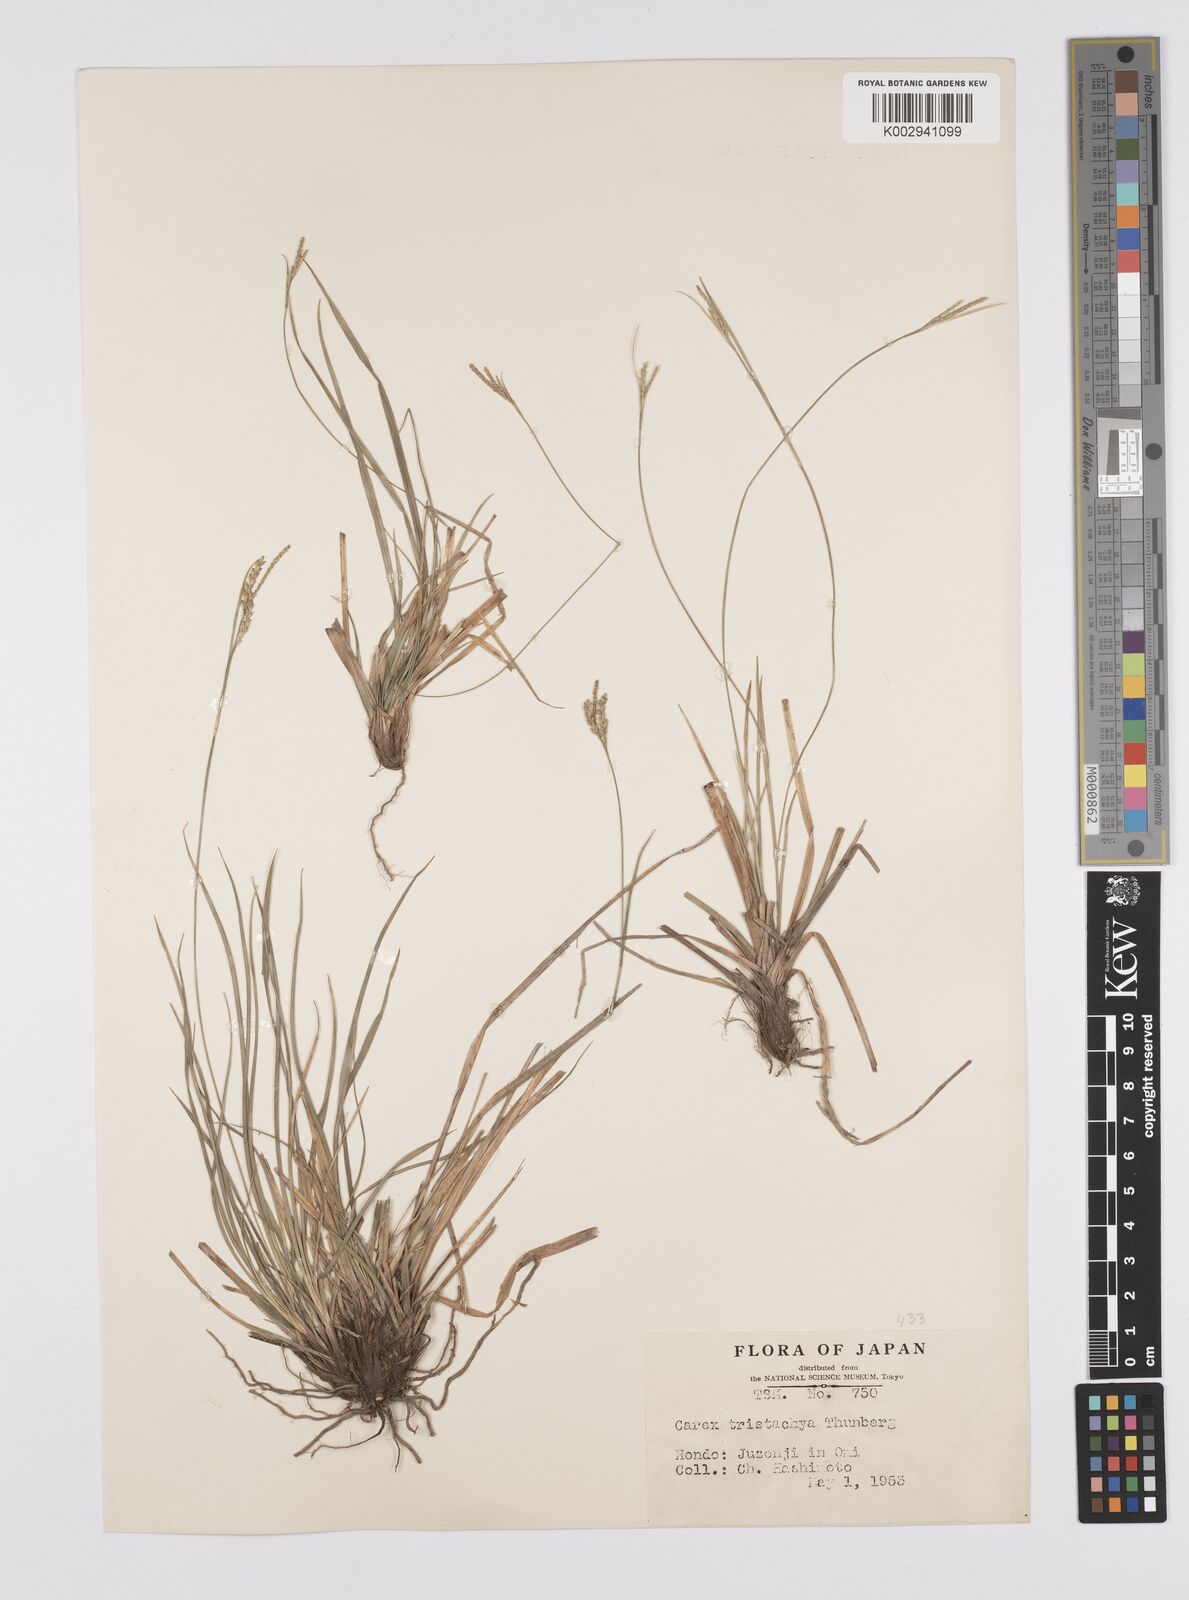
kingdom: Plantae
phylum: Tracheophyta
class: Liliopsida
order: Poales
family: Cyperaceae
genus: Carex
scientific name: Carex tristachya
